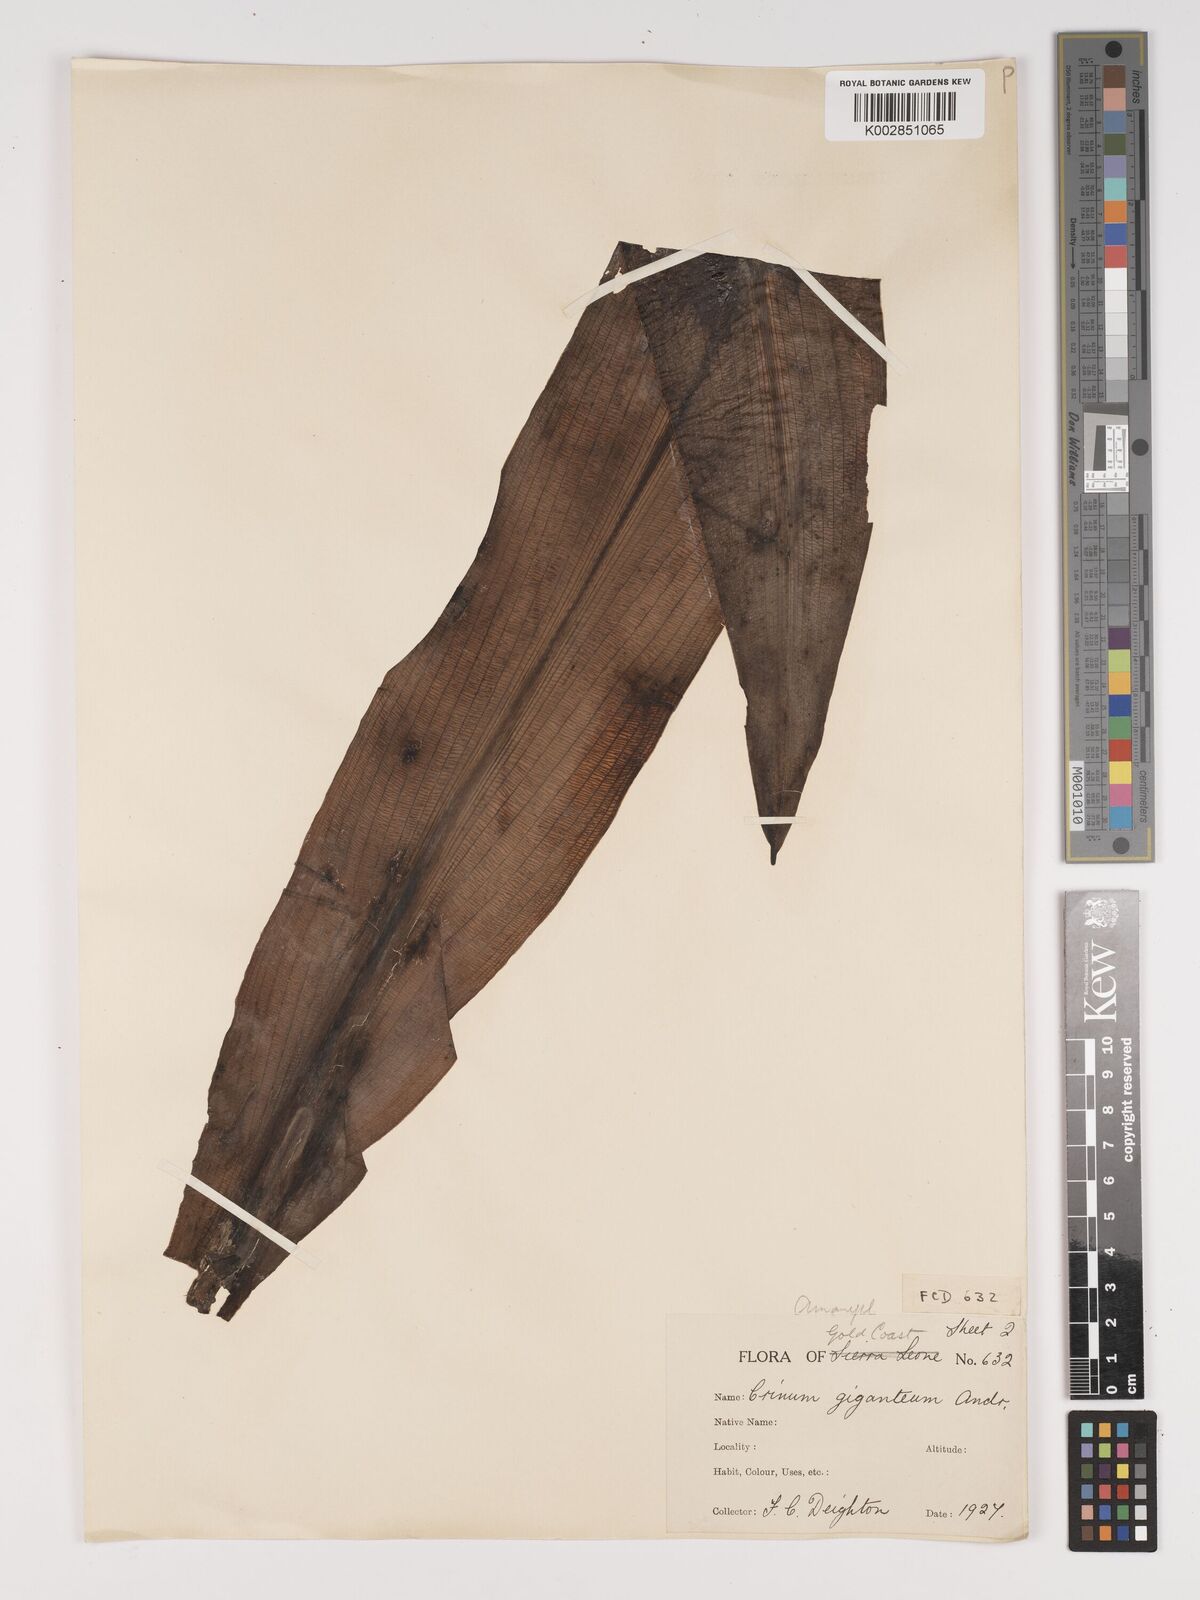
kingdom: Plantae
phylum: Tracheophyta
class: Liliopsida
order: Asparagales
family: Amaryllidaceae
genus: Crinum
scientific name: Crinum jagus
